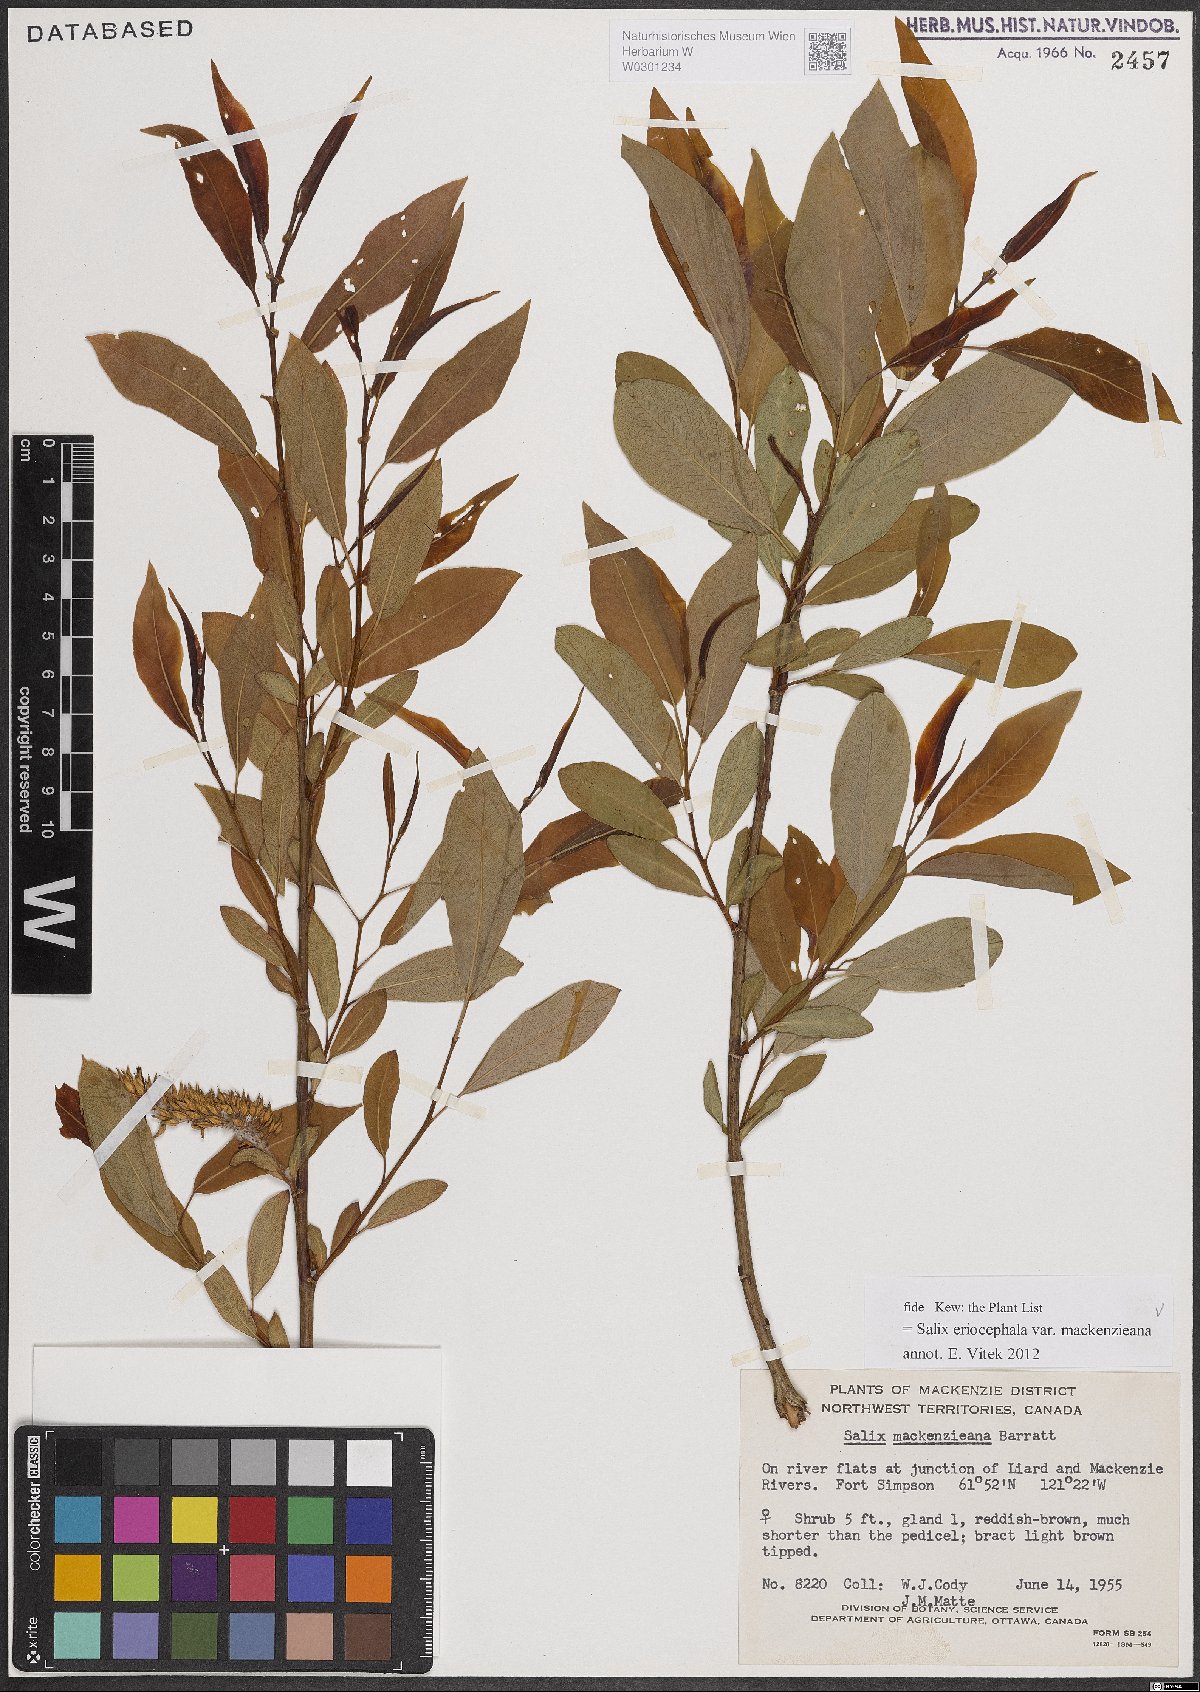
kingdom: Plantae
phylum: Tracheophyta
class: Magnoliopsida
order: Malpighiales
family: Salicaceae
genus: Salix
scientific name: Salix prolixa
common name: Mackenzie's willow
